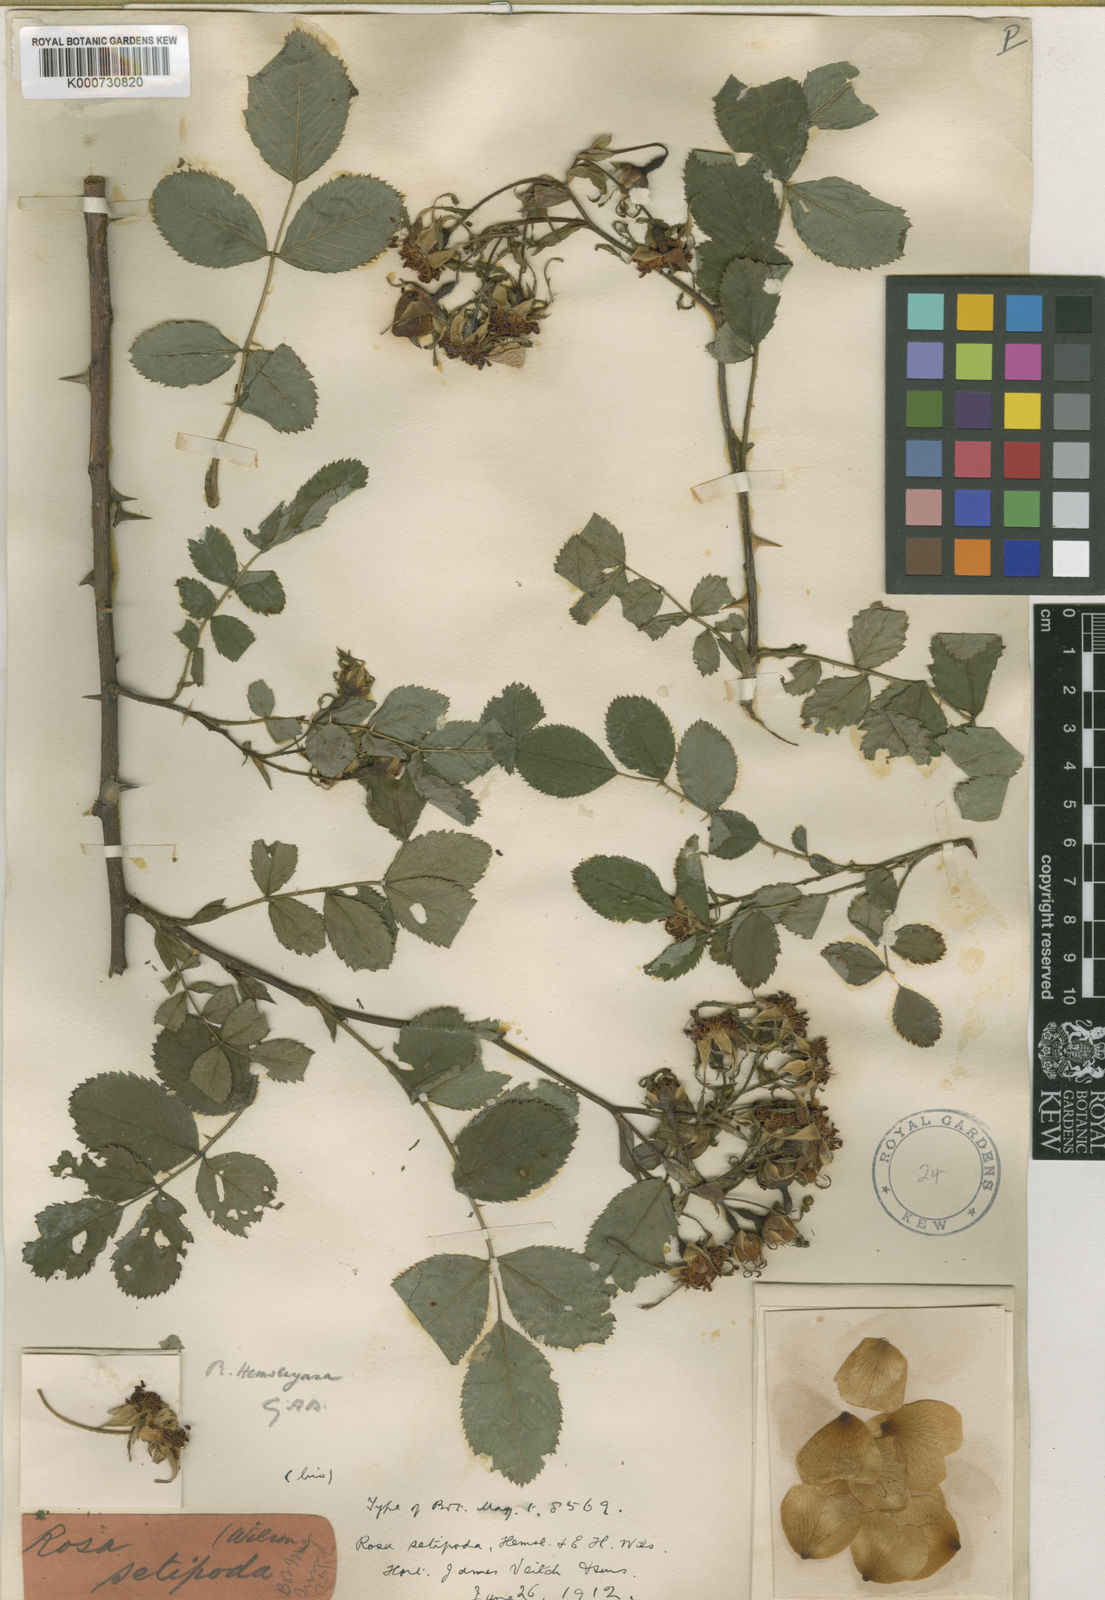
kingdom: Plantae
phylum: Tracheophyta
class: Magnoliopsida
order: Rosales
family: Rosaceae
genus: Rosa
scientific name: Rosa caudata
